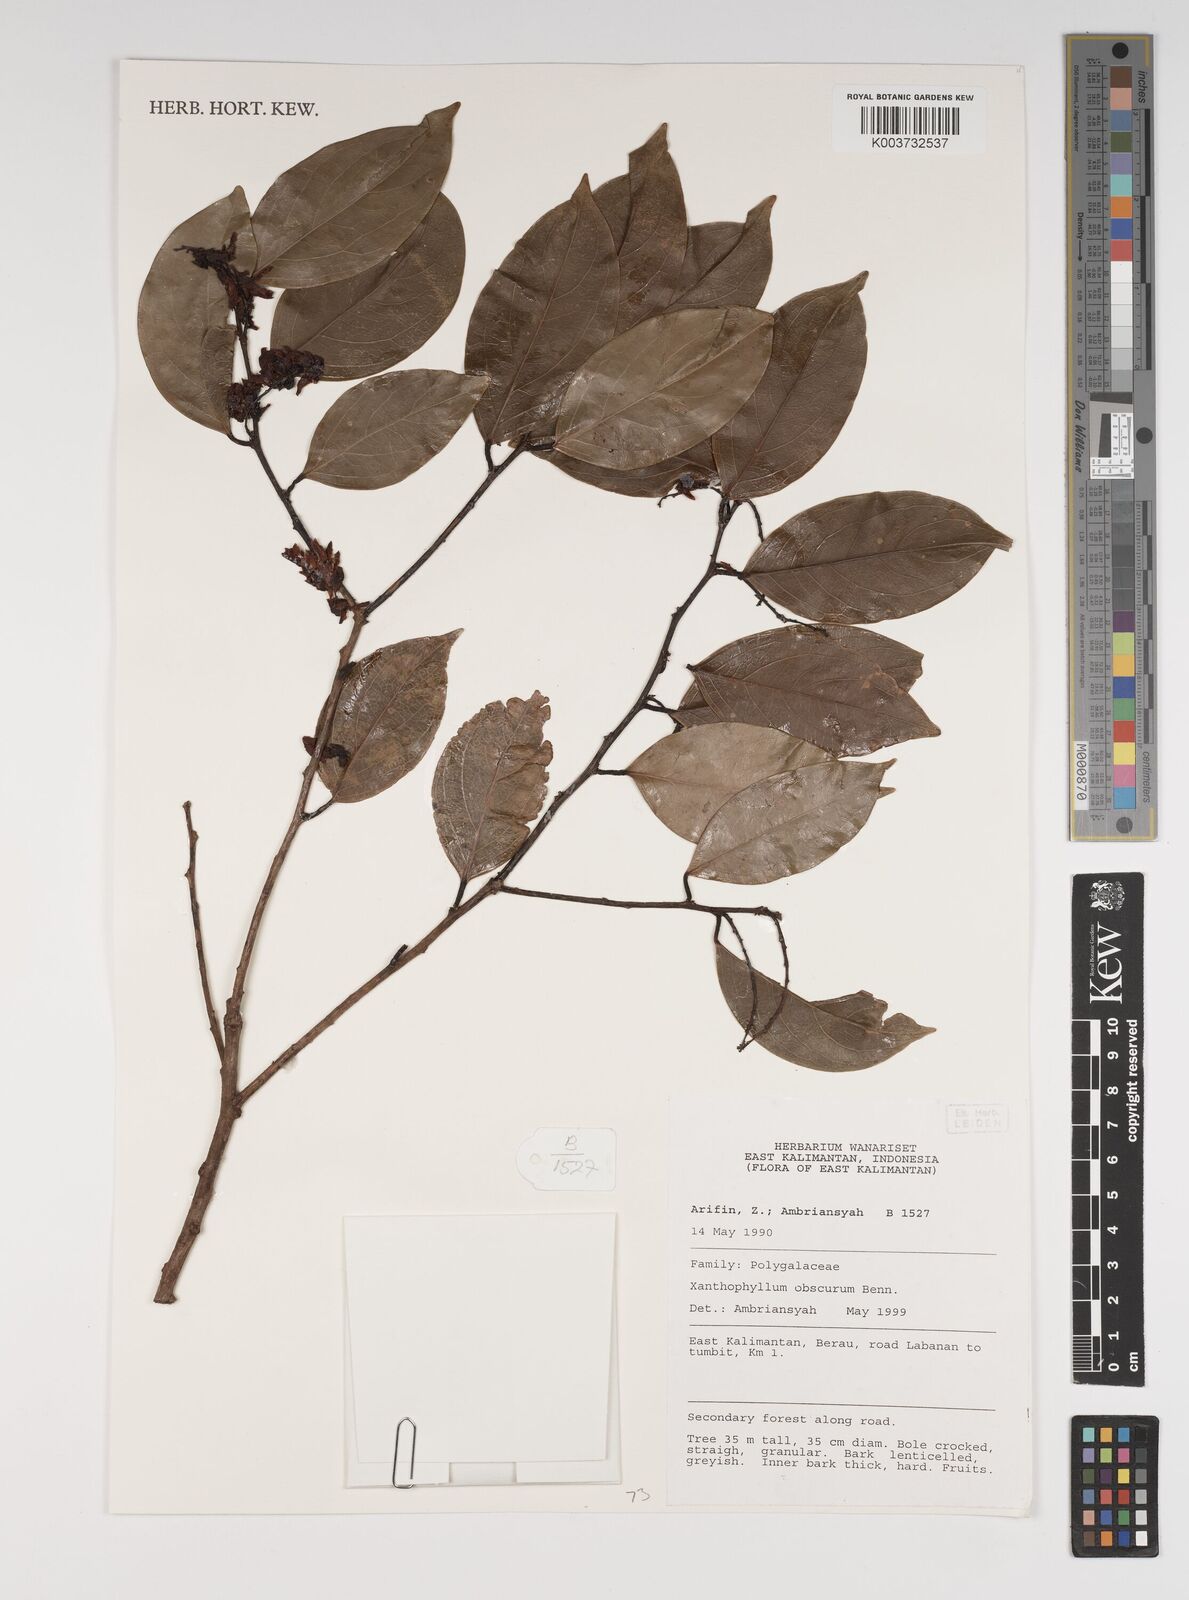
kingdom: Plantae
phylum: Tracheophyta
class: Magnoliopsida
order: Fabales
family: Polygalaceae
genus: Xanthophyllum
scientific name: Xanthophyllum obscurum
